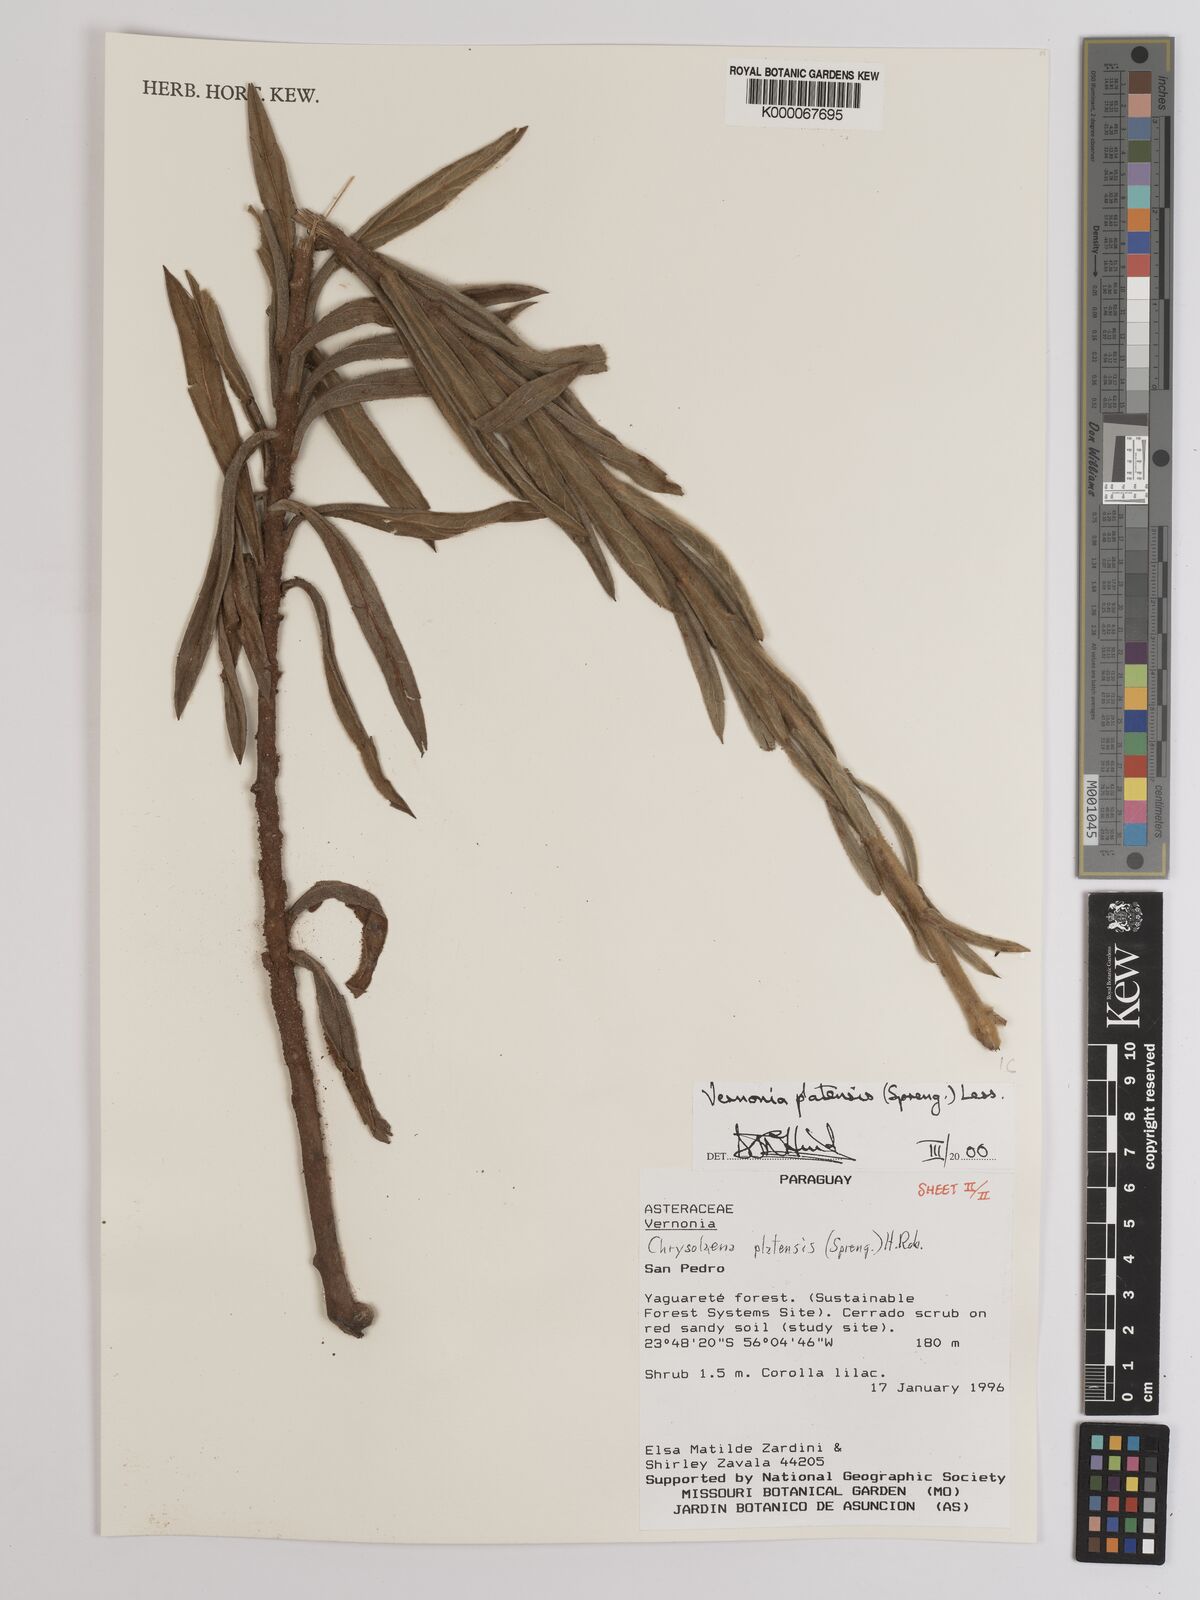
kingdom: Plantae
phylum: Tracheophyta
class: Magnoliopsida
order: Asterales
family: Asteraceae
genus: Chrysolaena
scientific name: Chrysolaena platensis
